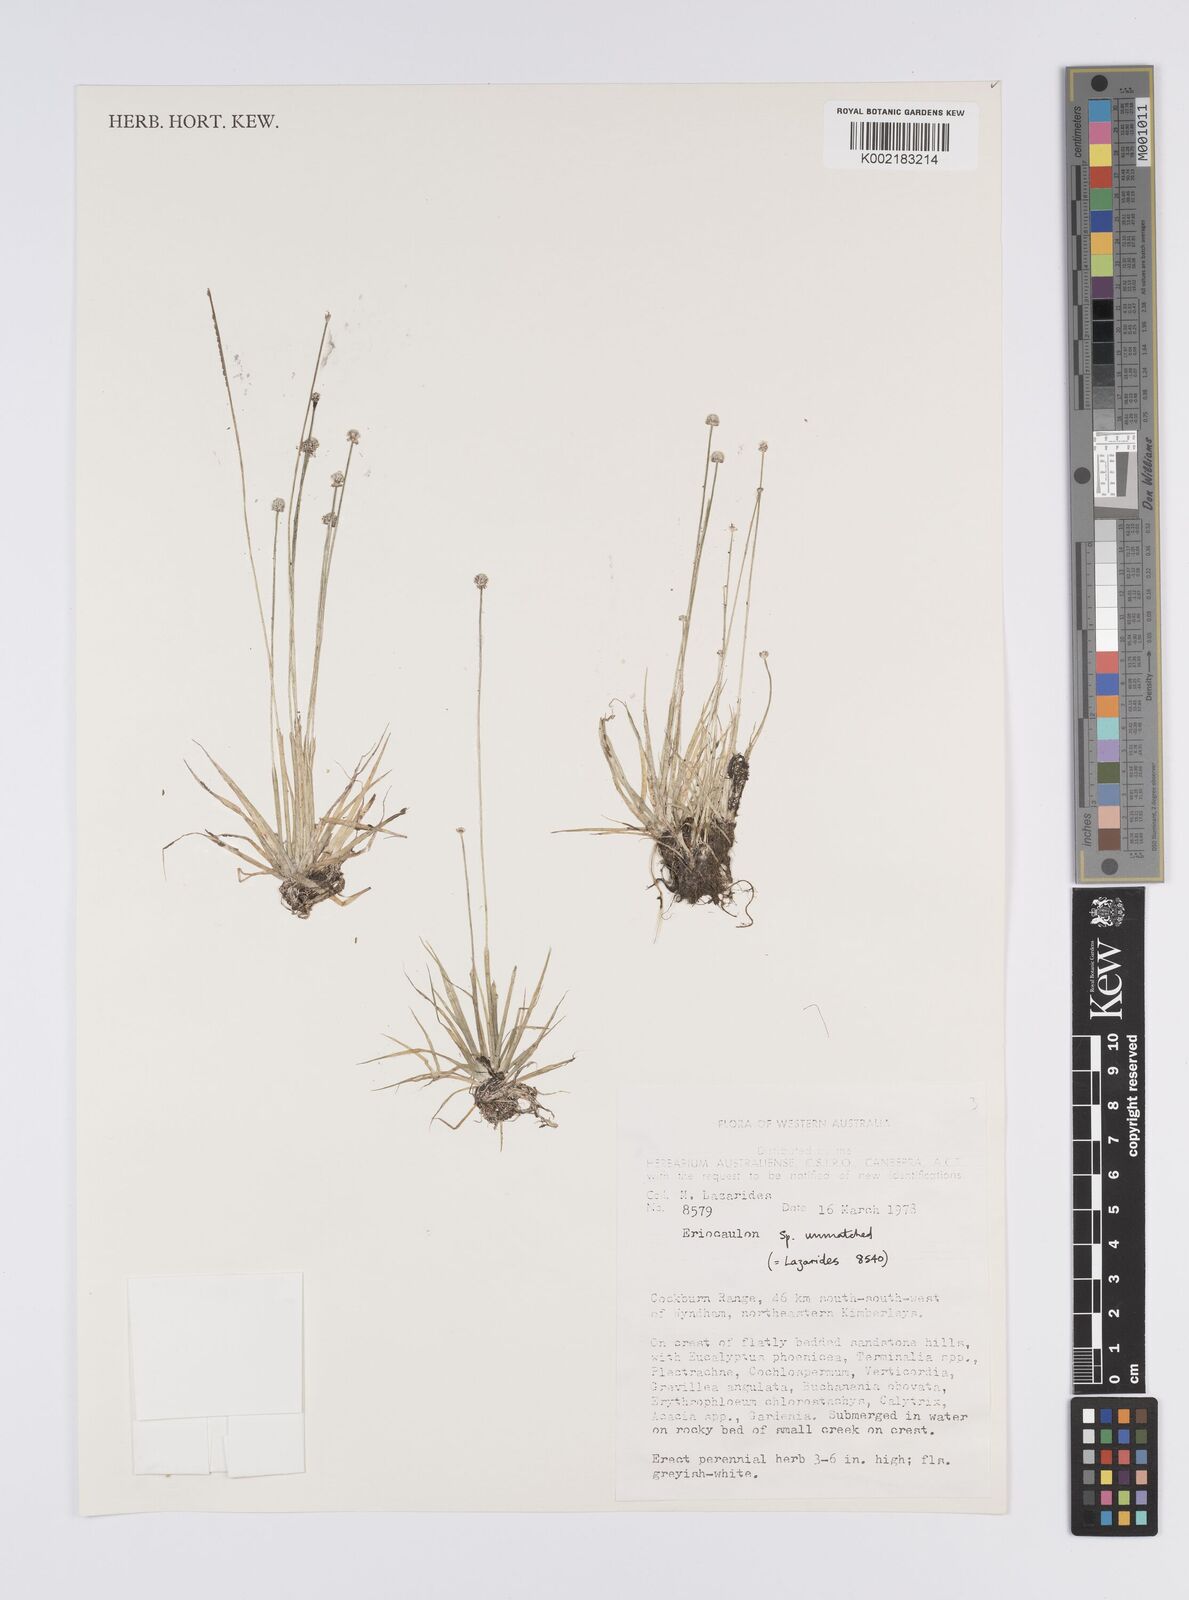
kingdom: Plantae
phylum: Tracheophyta
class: Liliopsida
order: Poales
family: Eriocaulaceae
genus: Eriocaulon
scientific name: Eriocaulon cinereum
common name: Ashy pipewort
